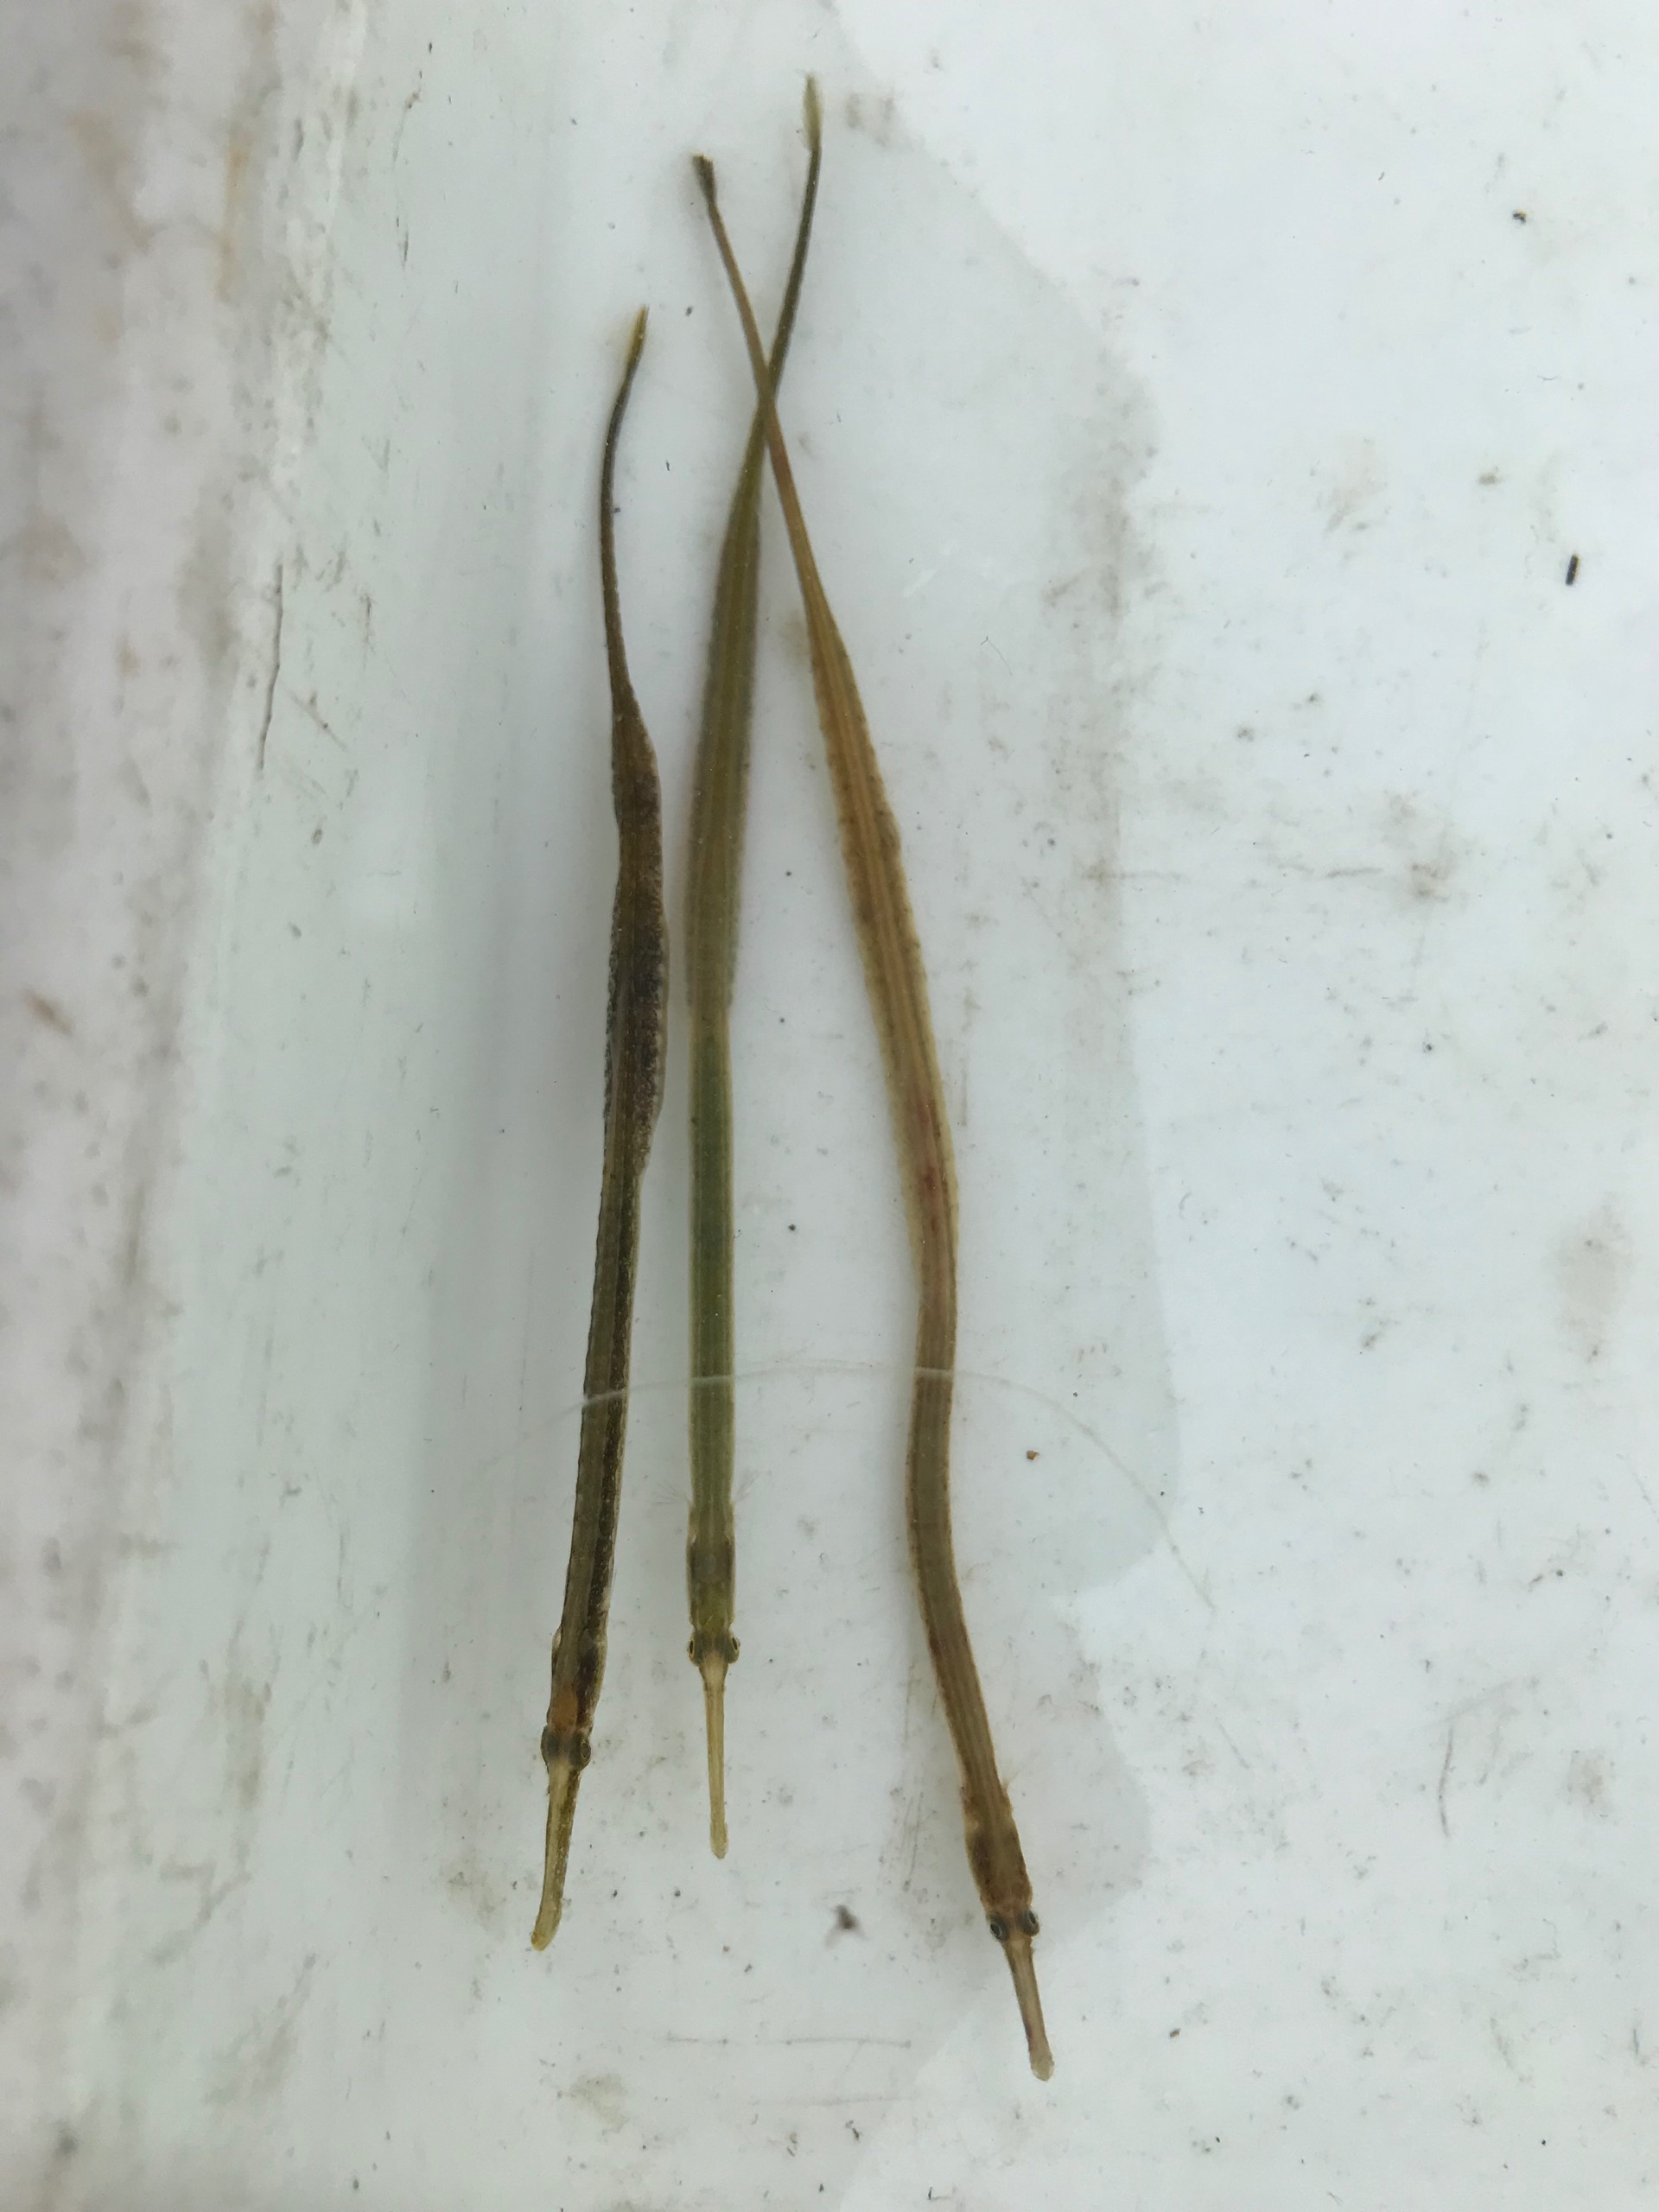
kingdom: Animalia
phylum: Chordata
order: Syngnathiformes
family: Syngnathidae
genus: Syngnathus
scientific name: Syngnathus typhle
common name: Almindelig tangnål
